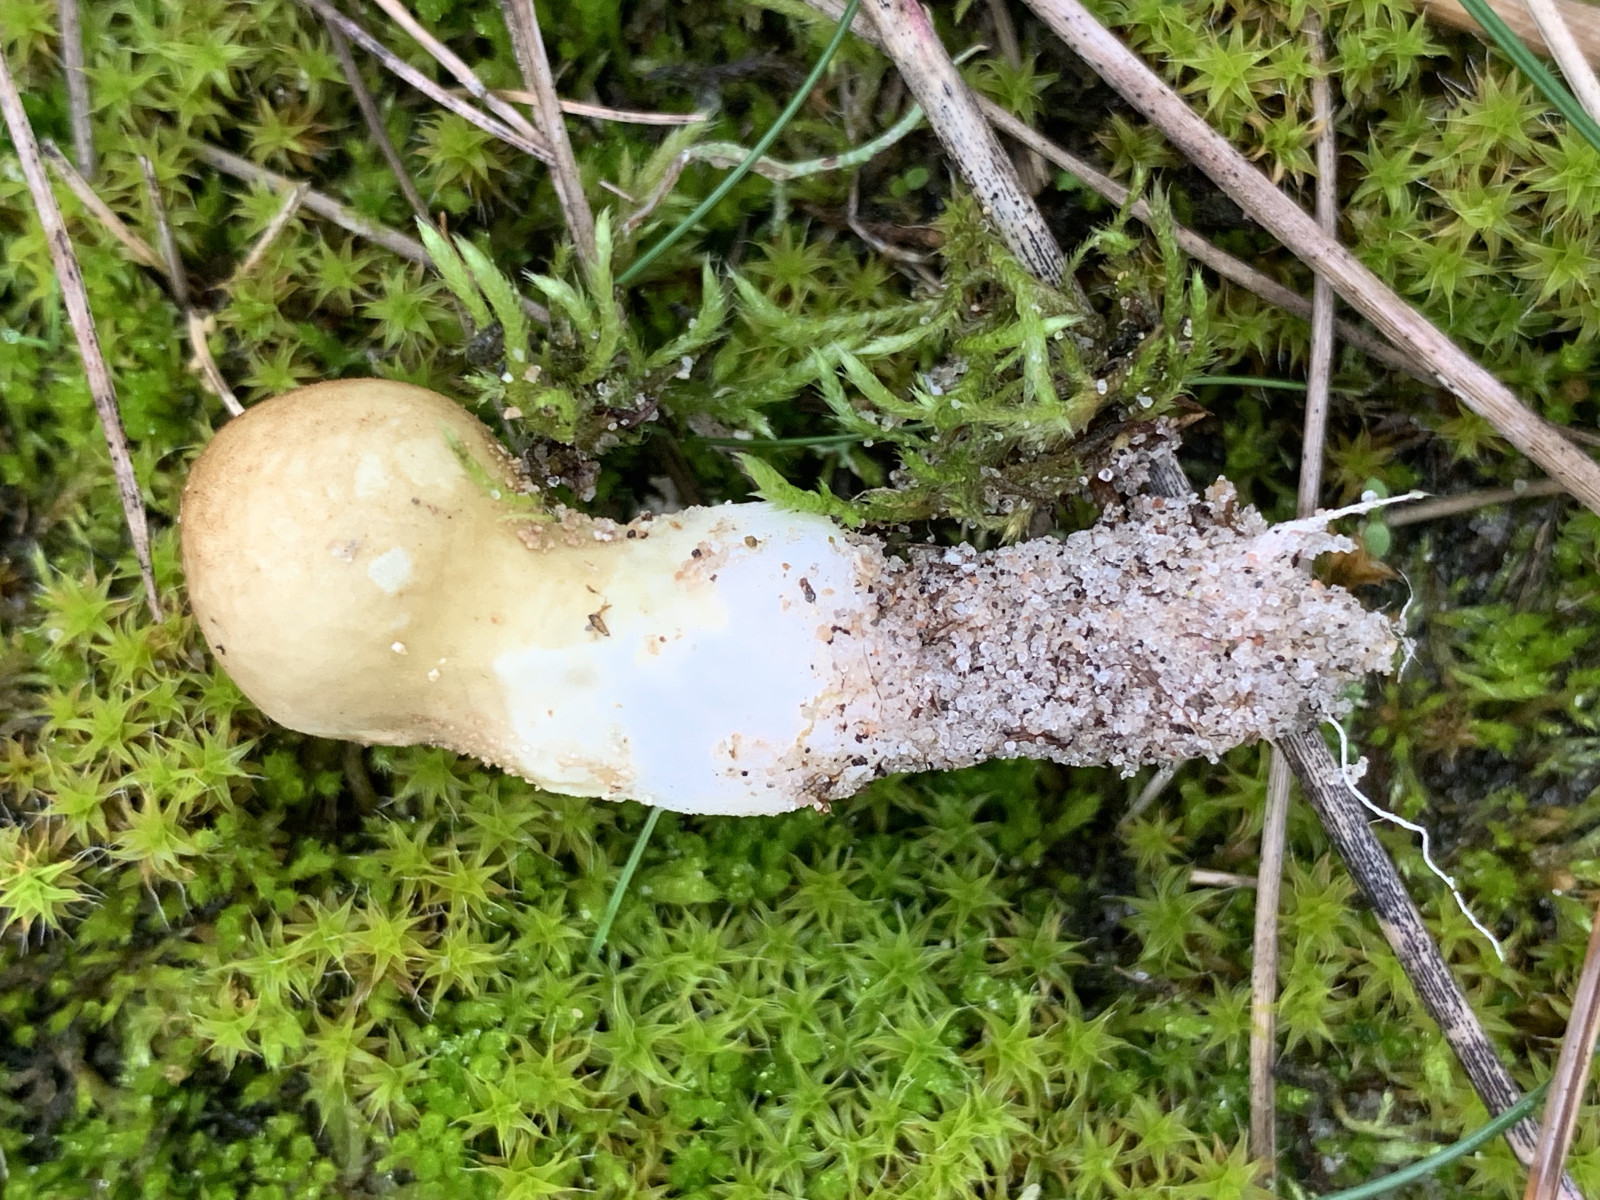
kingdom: Fungi
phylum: Basidiomycota
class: Agaricomycetes
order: Agaricales
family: Lycoperdaceae
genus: Lycoperdon
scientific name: Lycoperdon lividum
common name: mark-støvbold
